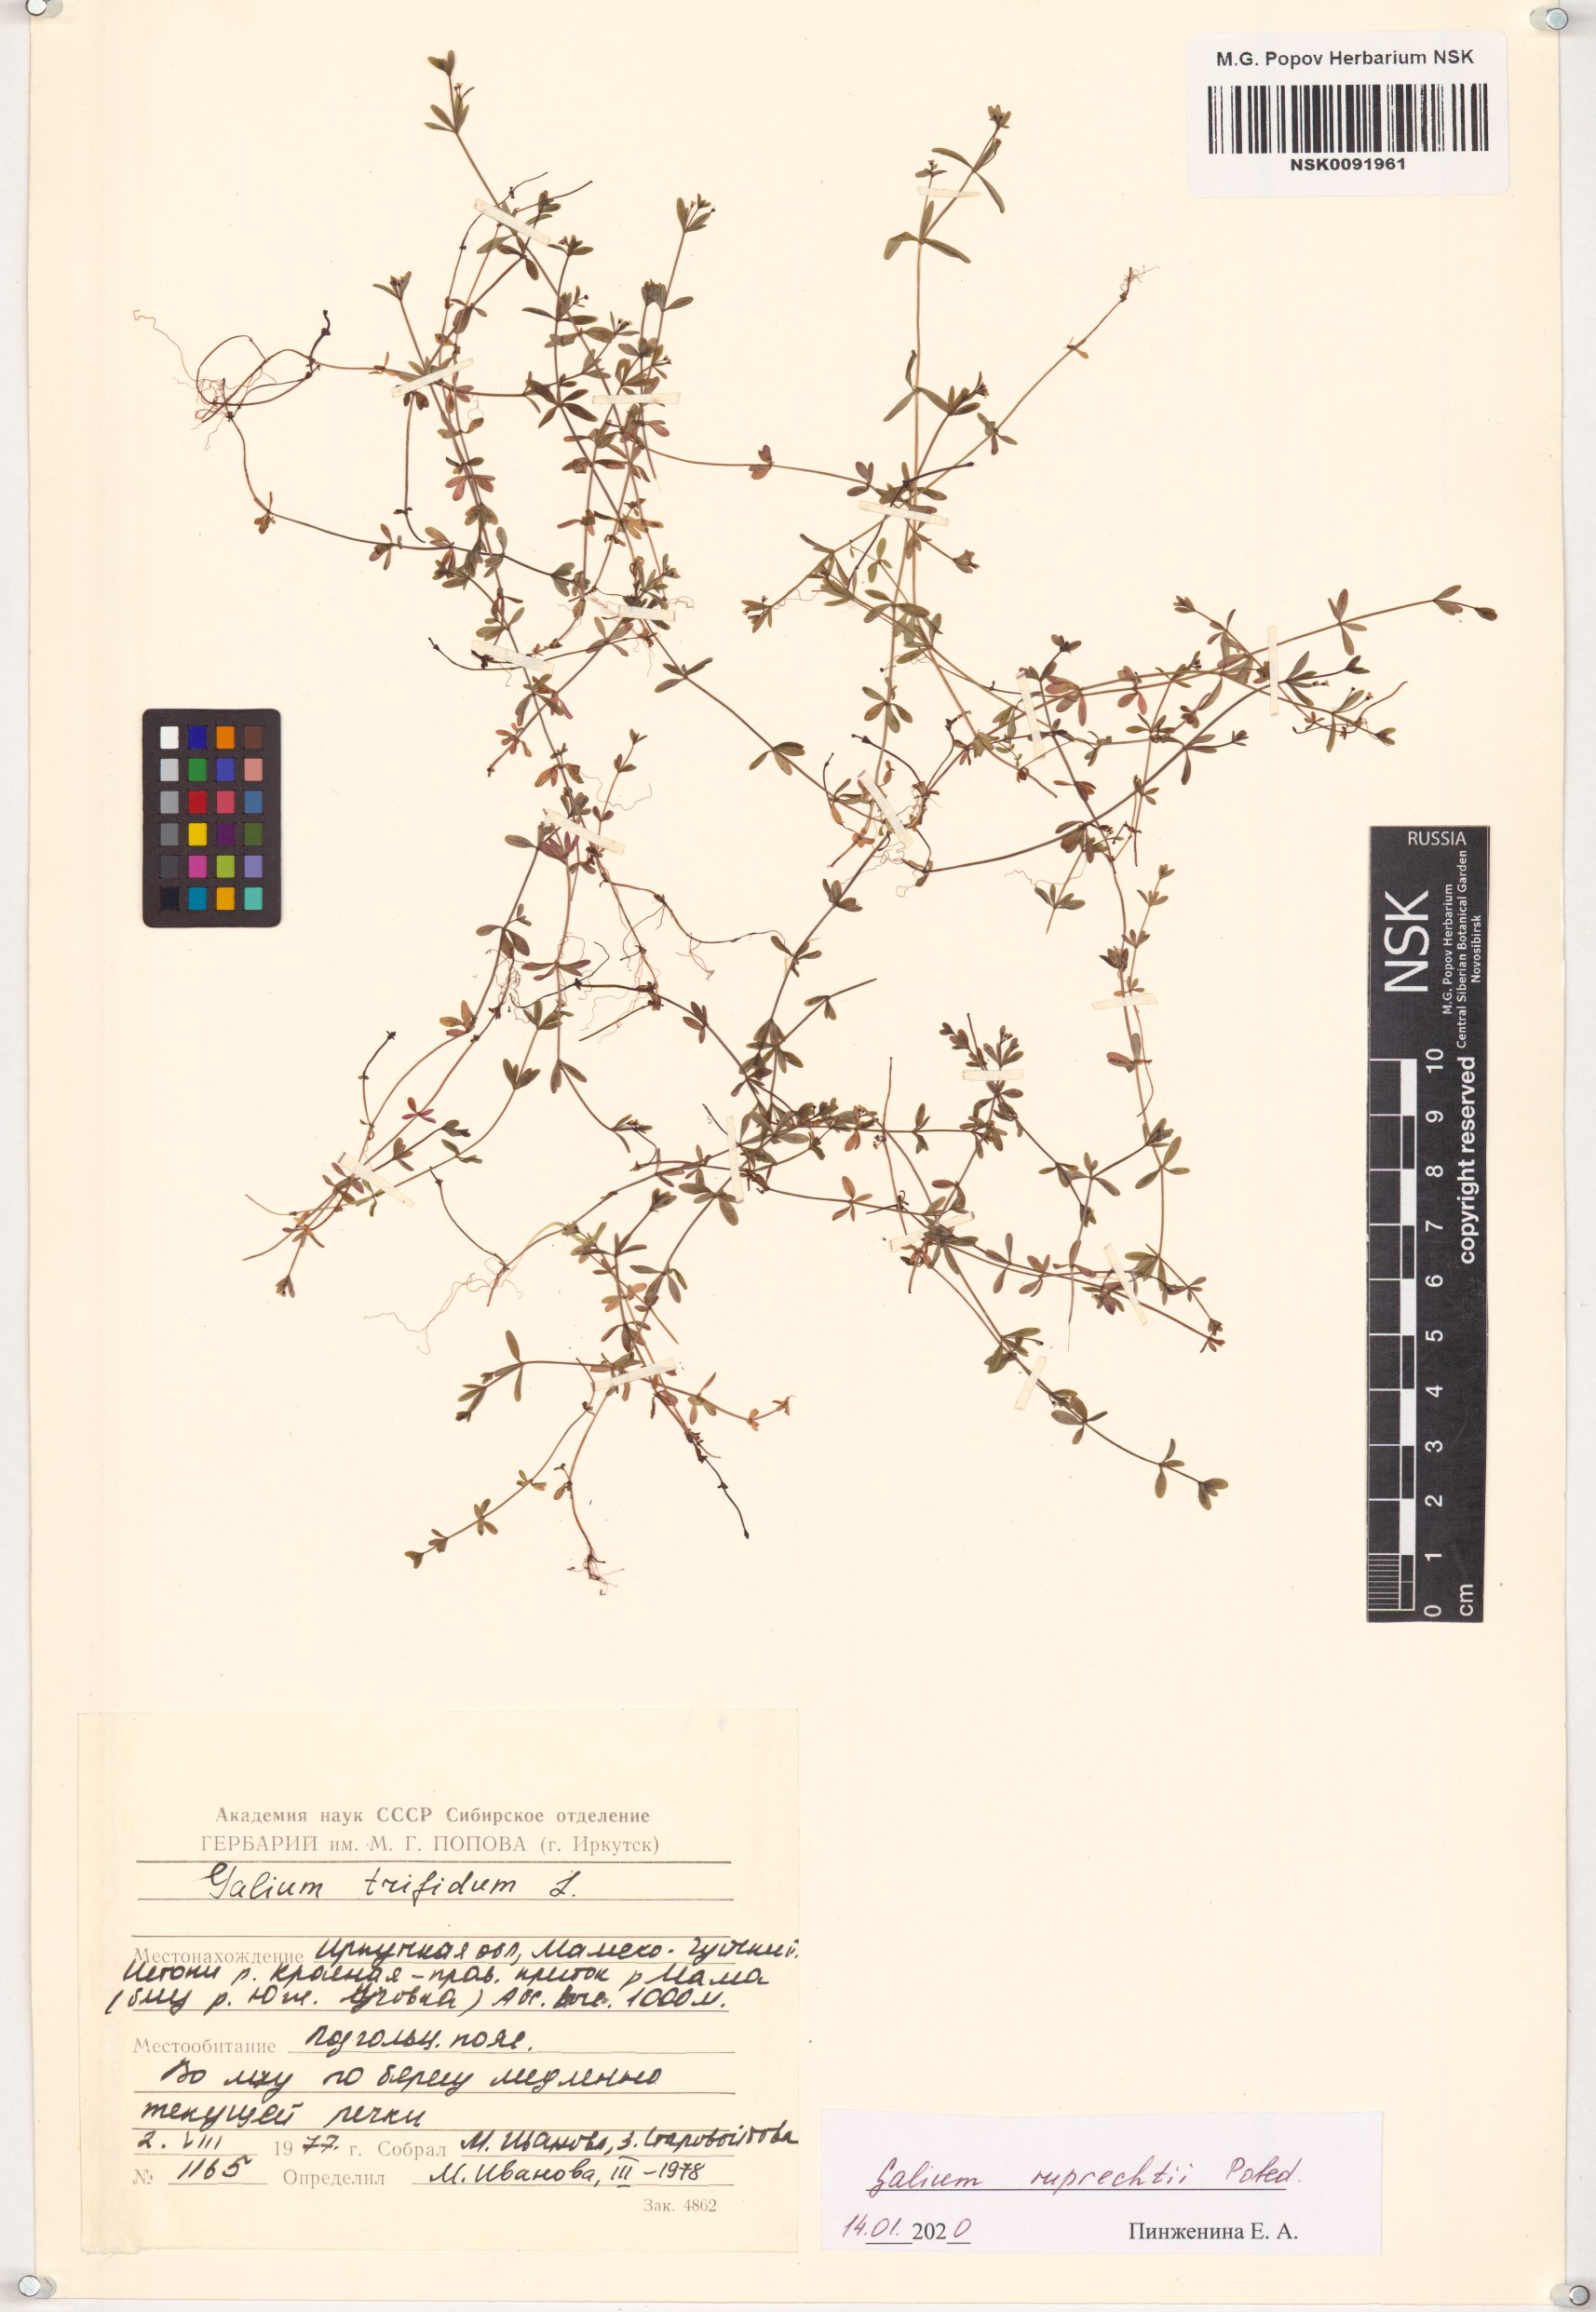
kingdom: Plantae
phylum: Tracheophyta
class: Magnoliopsida
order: Gentianales
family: Rubiaceae
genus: Galium
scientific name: Galium trifidum
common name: Small bedstraw
